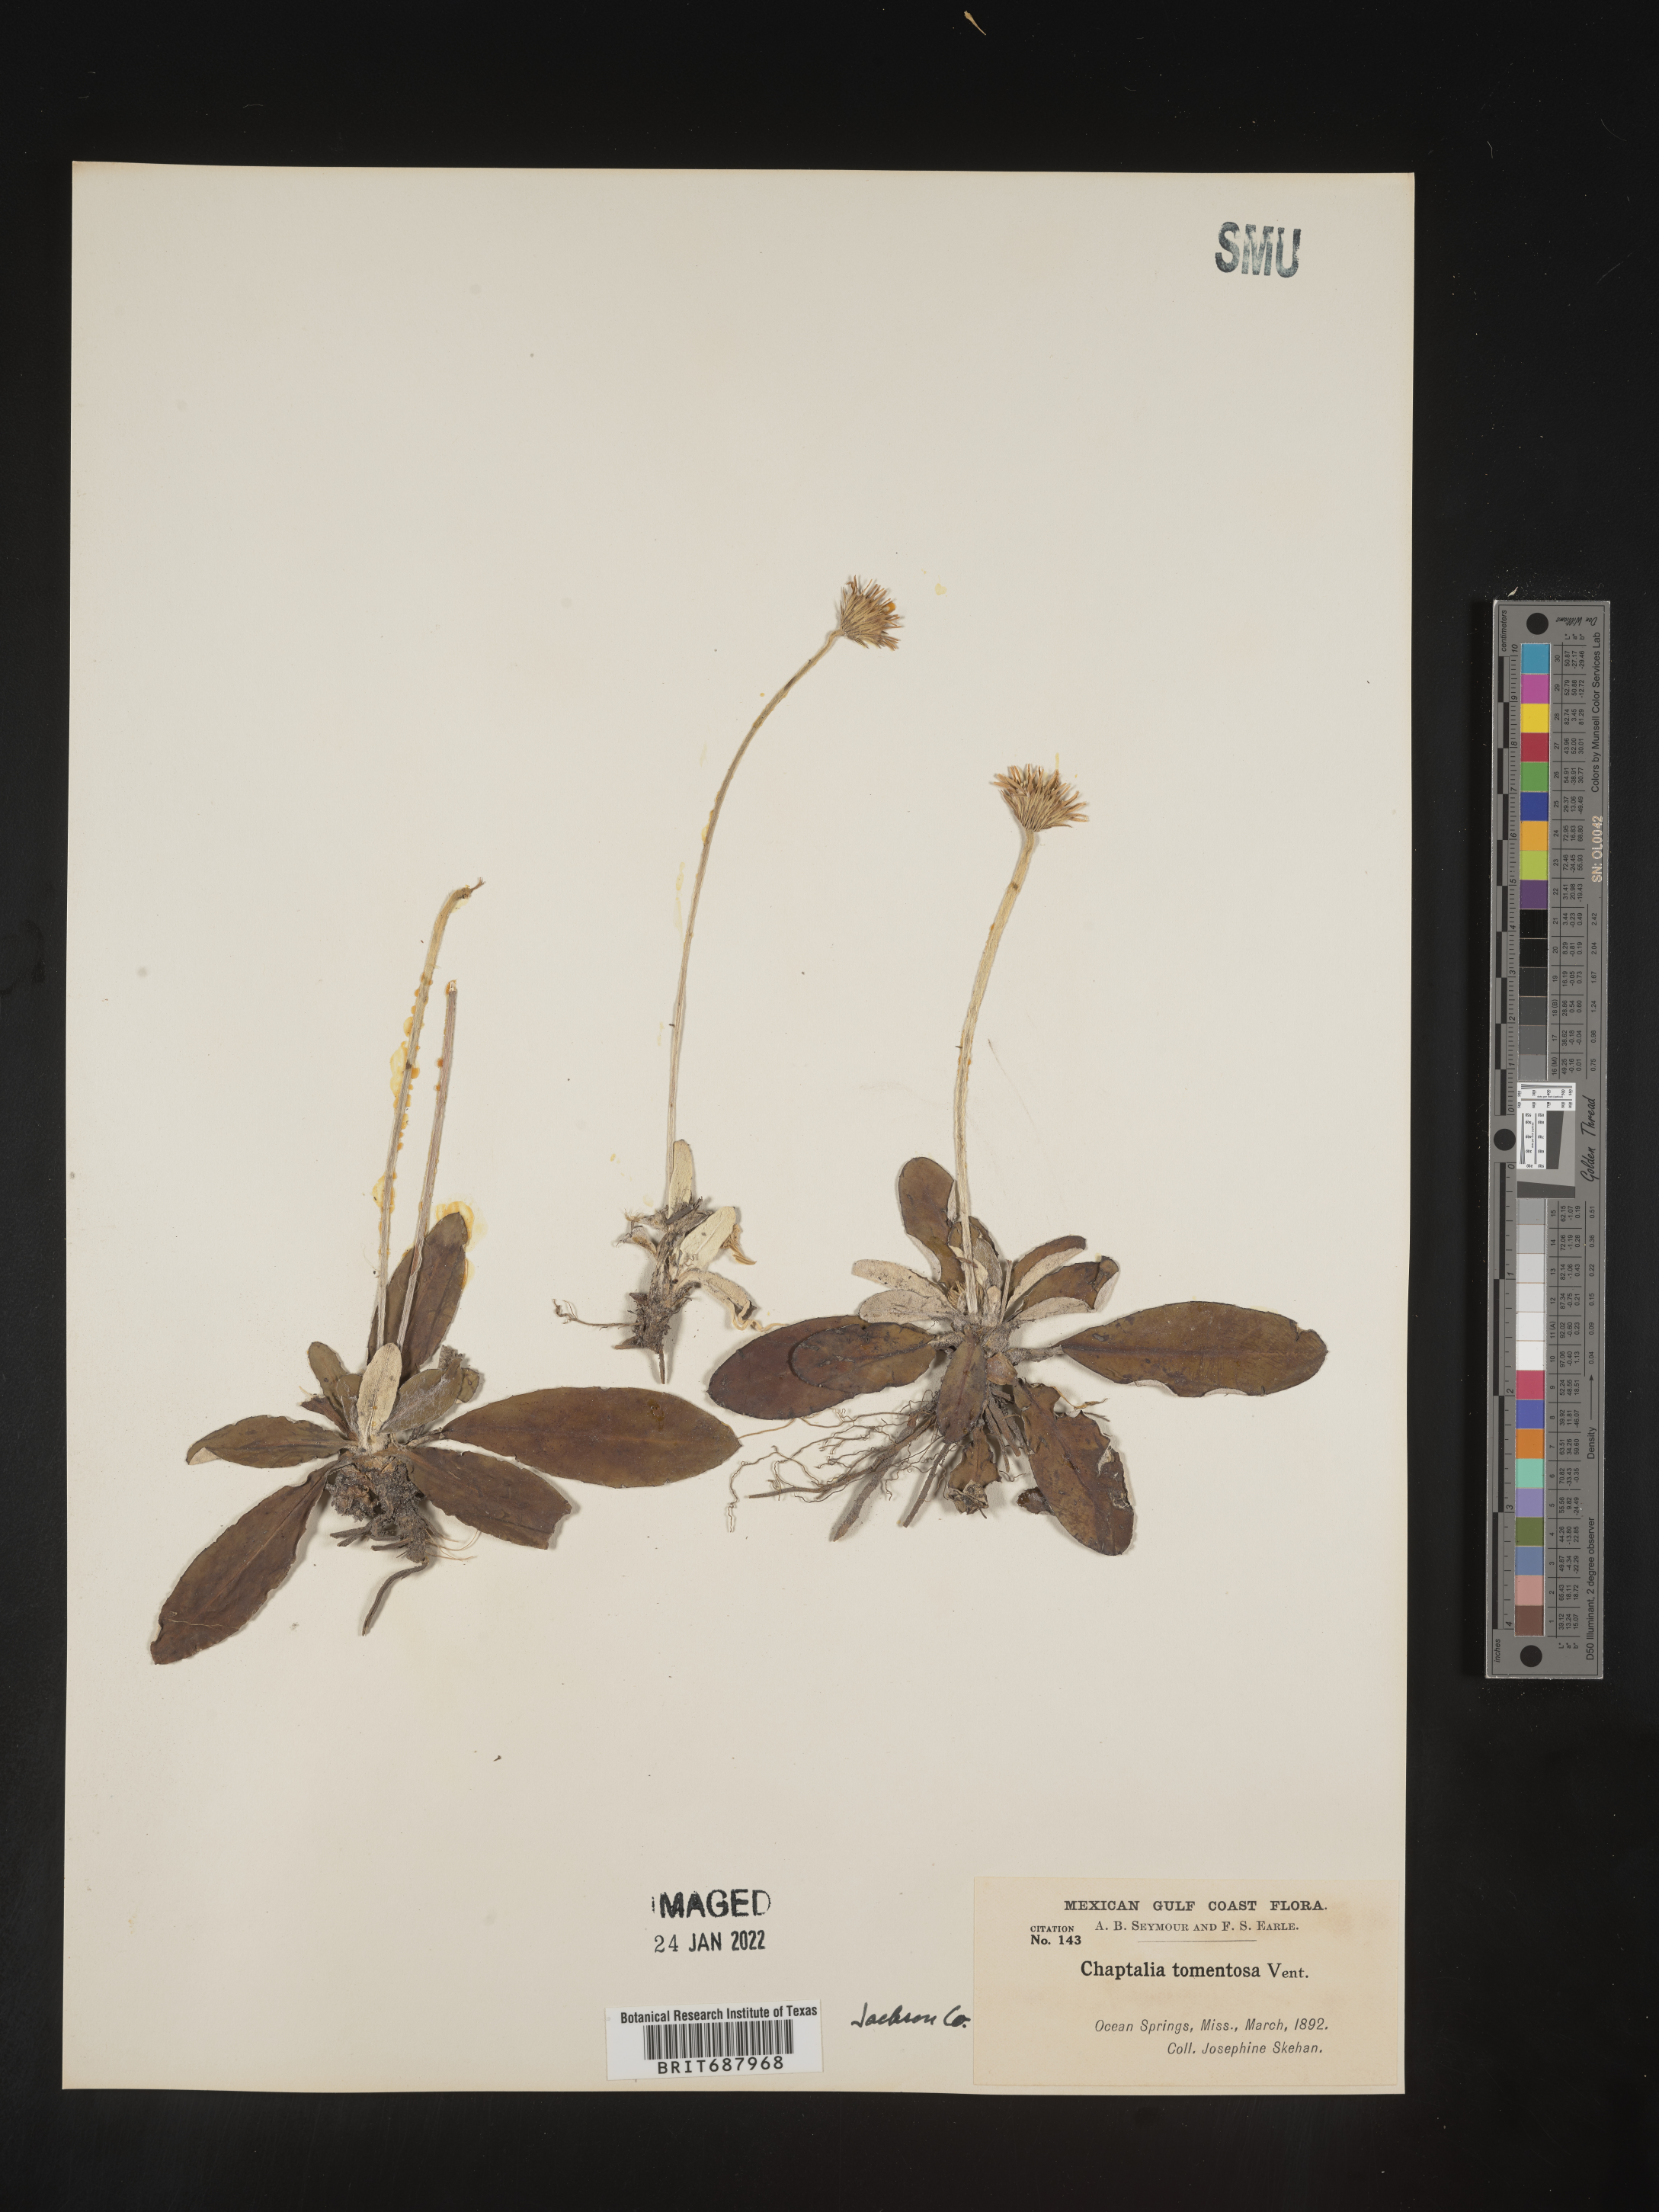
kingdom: Plantae
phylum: Tracheophyta
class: Magnoliopsida
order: Asterales
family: Asteraceae
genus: Chaptalia
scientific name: Chaptalia tomentosa
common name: Woolly sunbonnet
